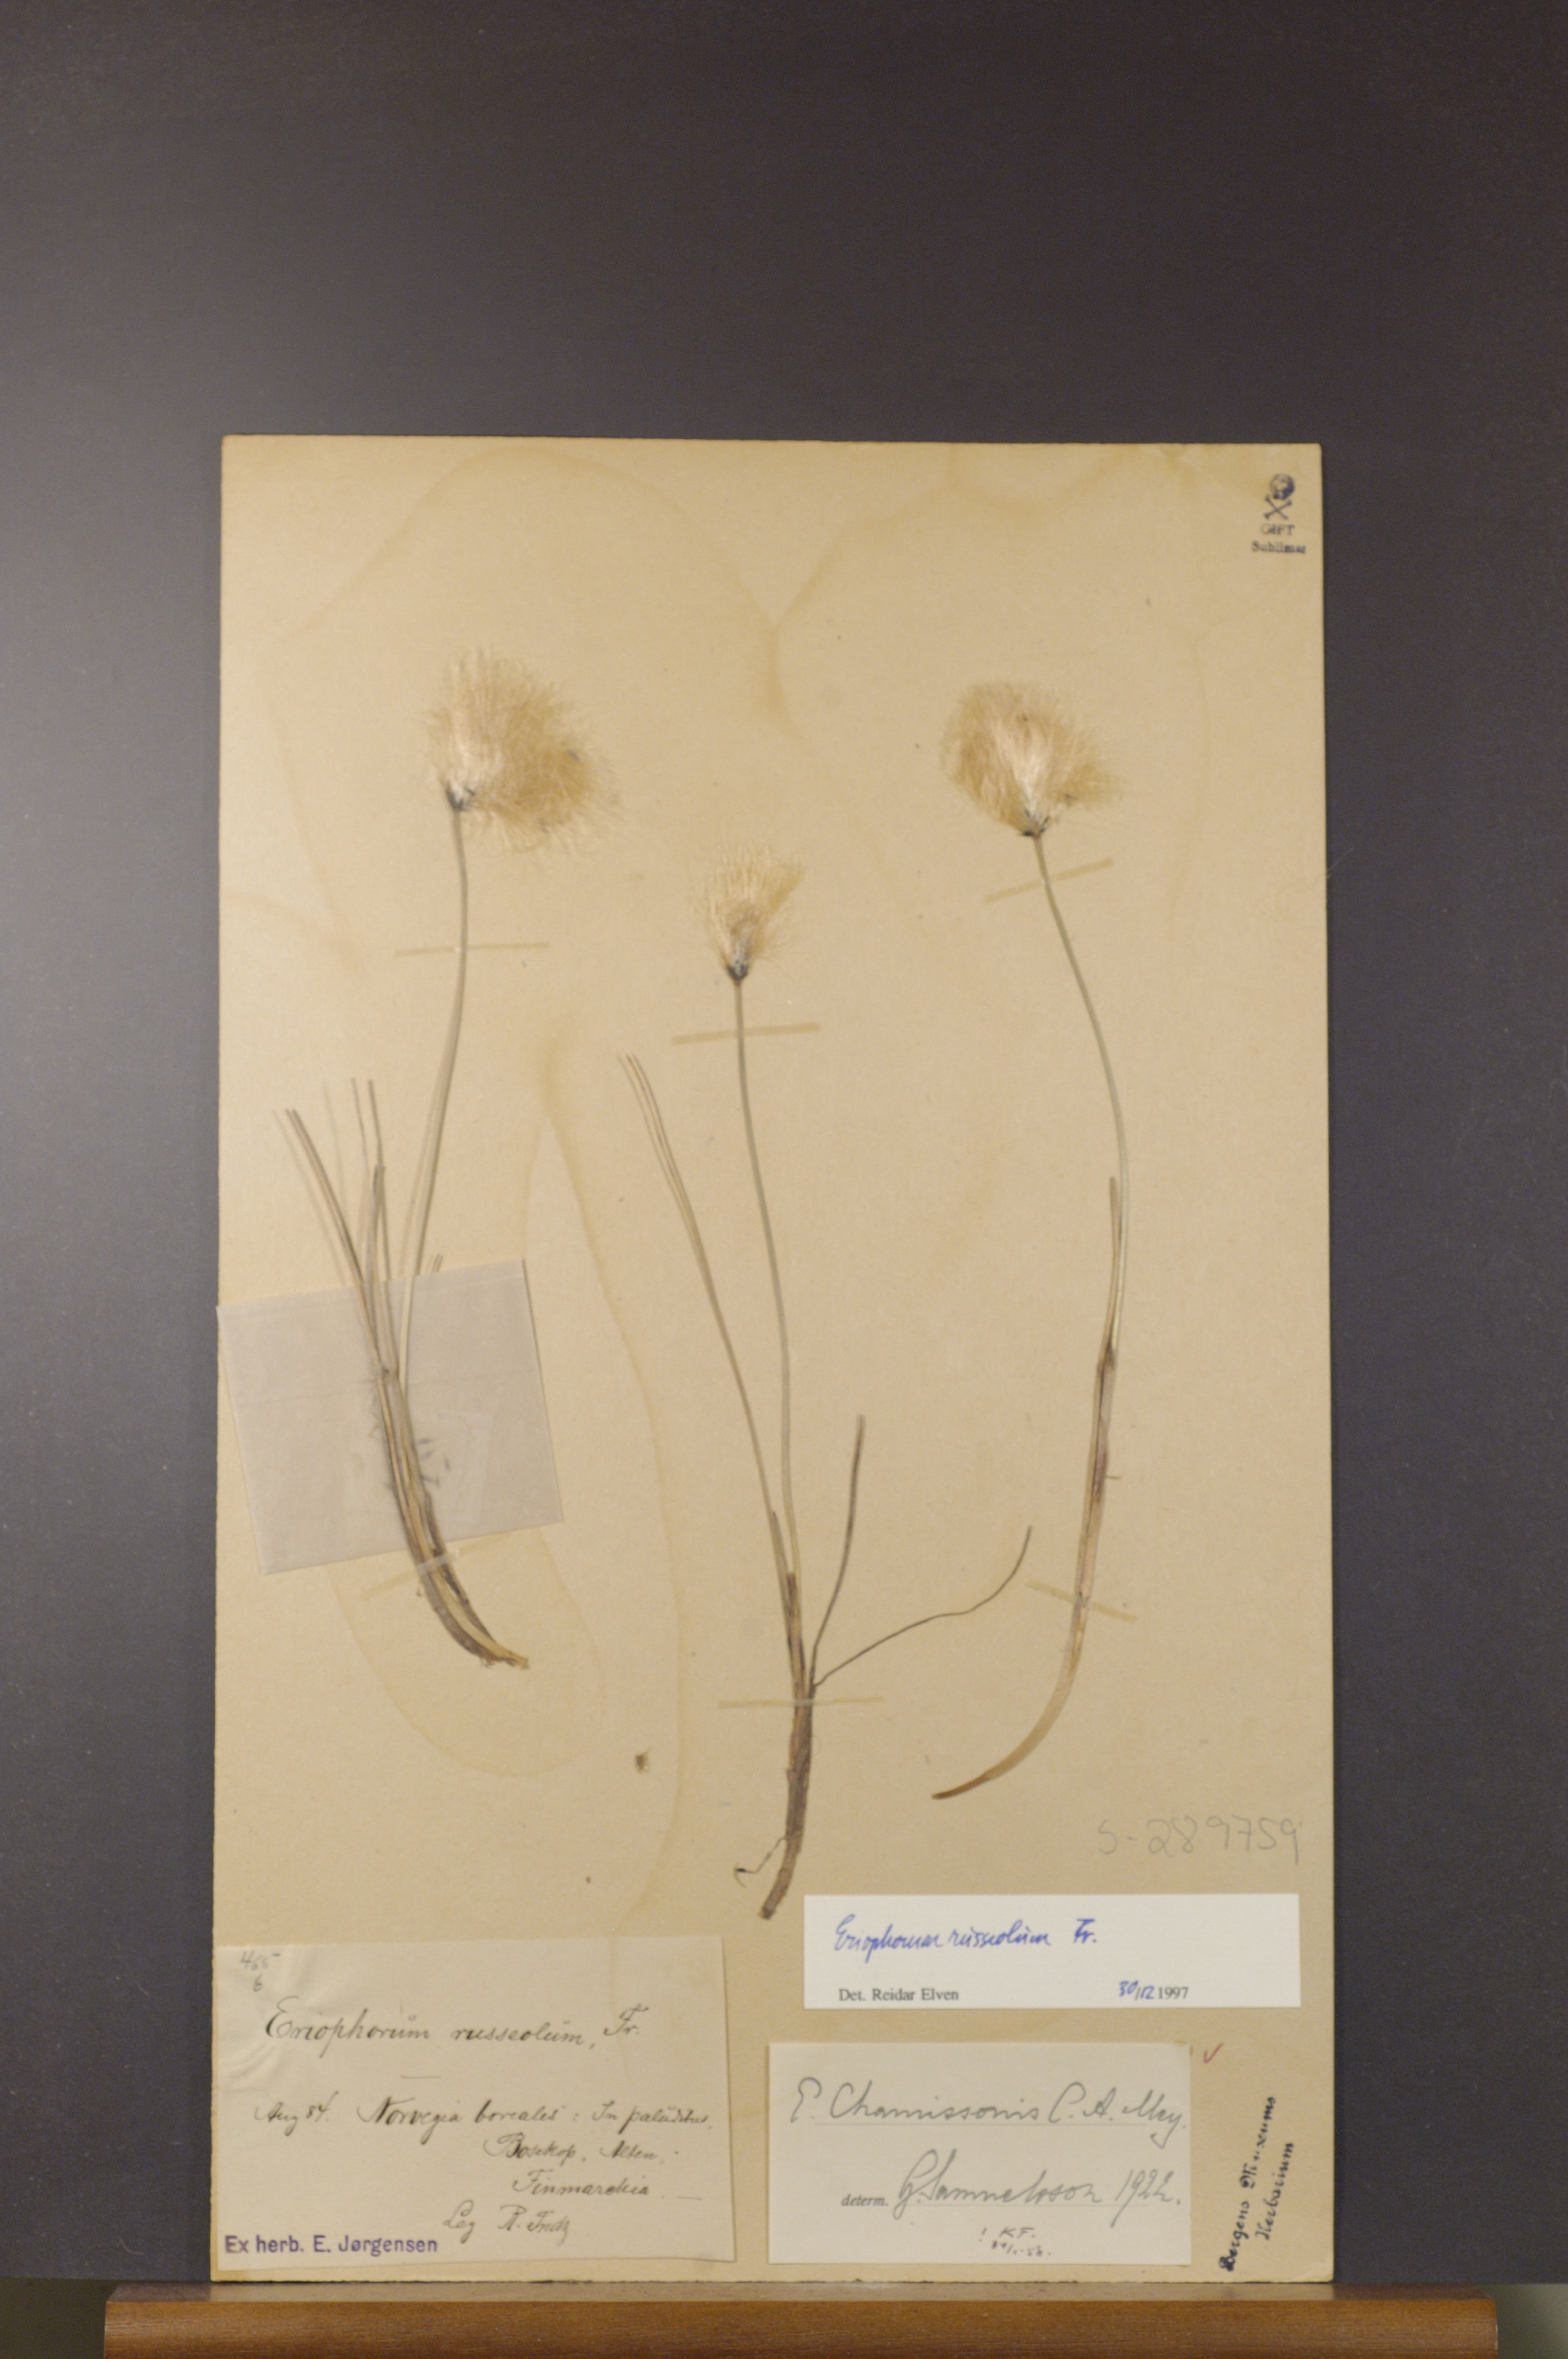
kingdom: Plantae
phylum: Tracheophyta
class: Liliopsida
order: Poales
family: Cyperaceae
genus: Eriophorum
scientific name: Eriophorum russeolum
